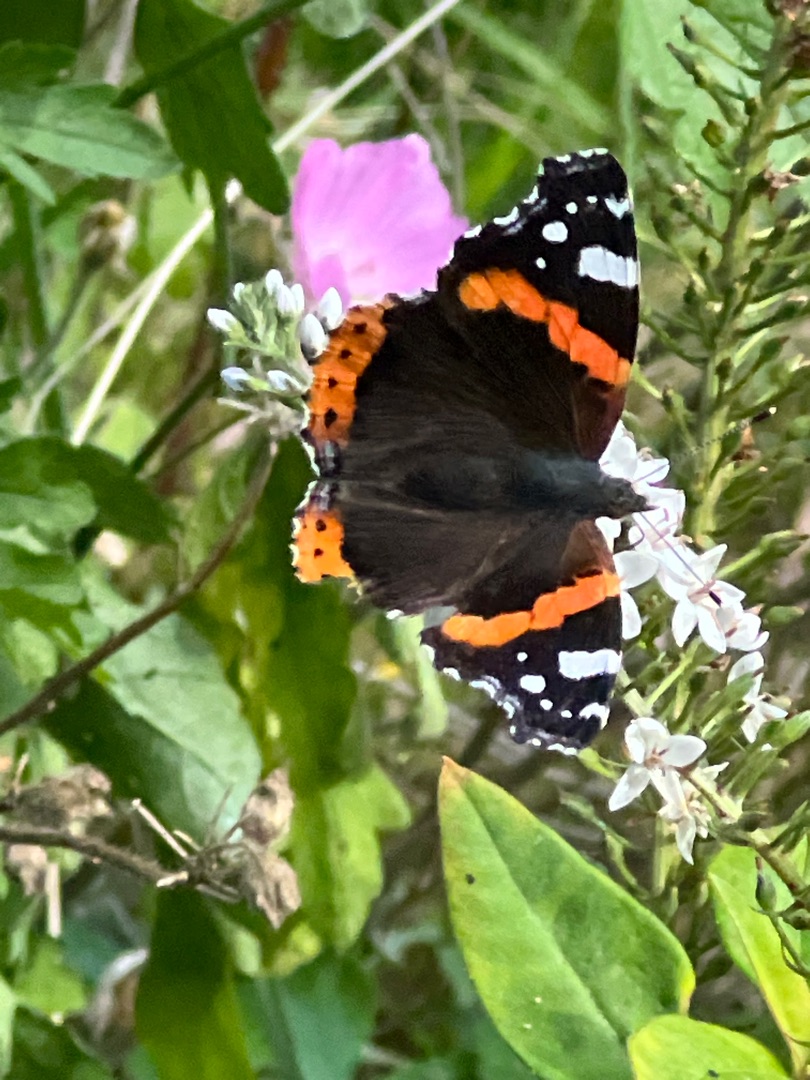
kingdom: Animalia
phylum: Arthropoda
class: Insecta
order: Lepidoptera
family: Nymphalidae
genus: Vanessa
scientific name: Vanessa atalanta
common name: Admiral
